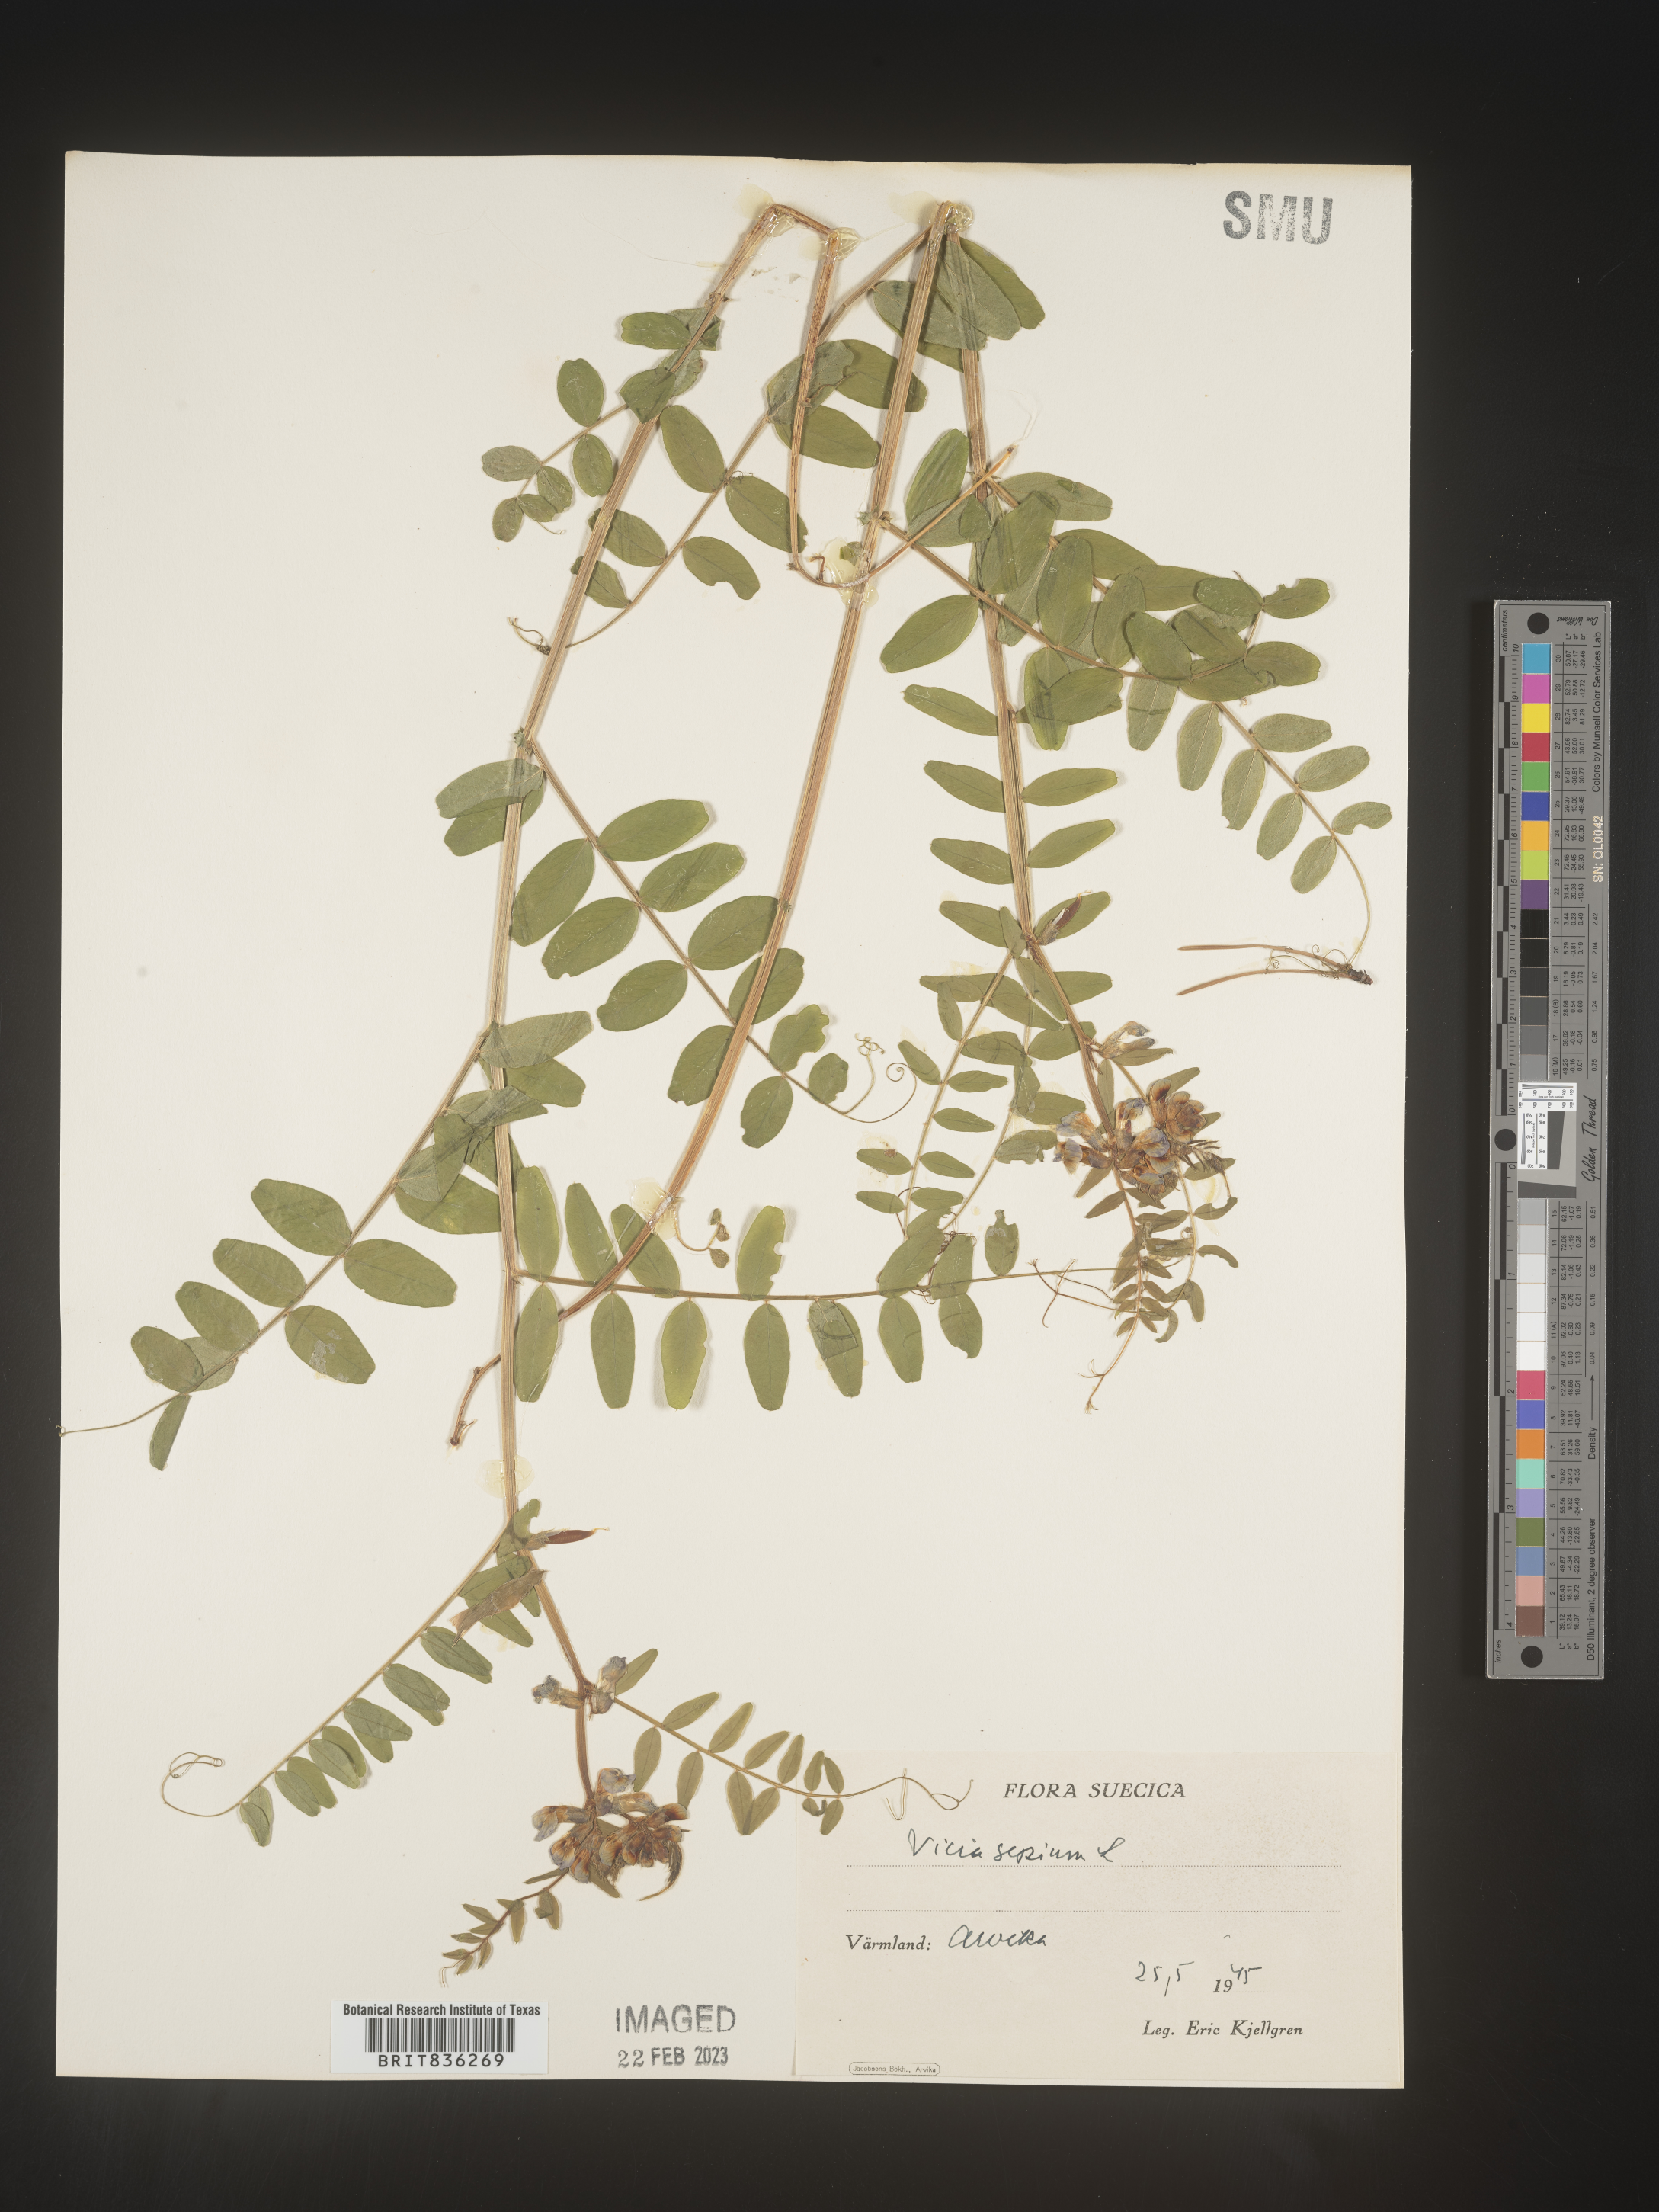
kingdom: Plantae
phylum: Tracheophyta
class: Magnoliopsida
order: Fabales
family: Fabaceae
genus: Vicia
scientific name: Vicia
